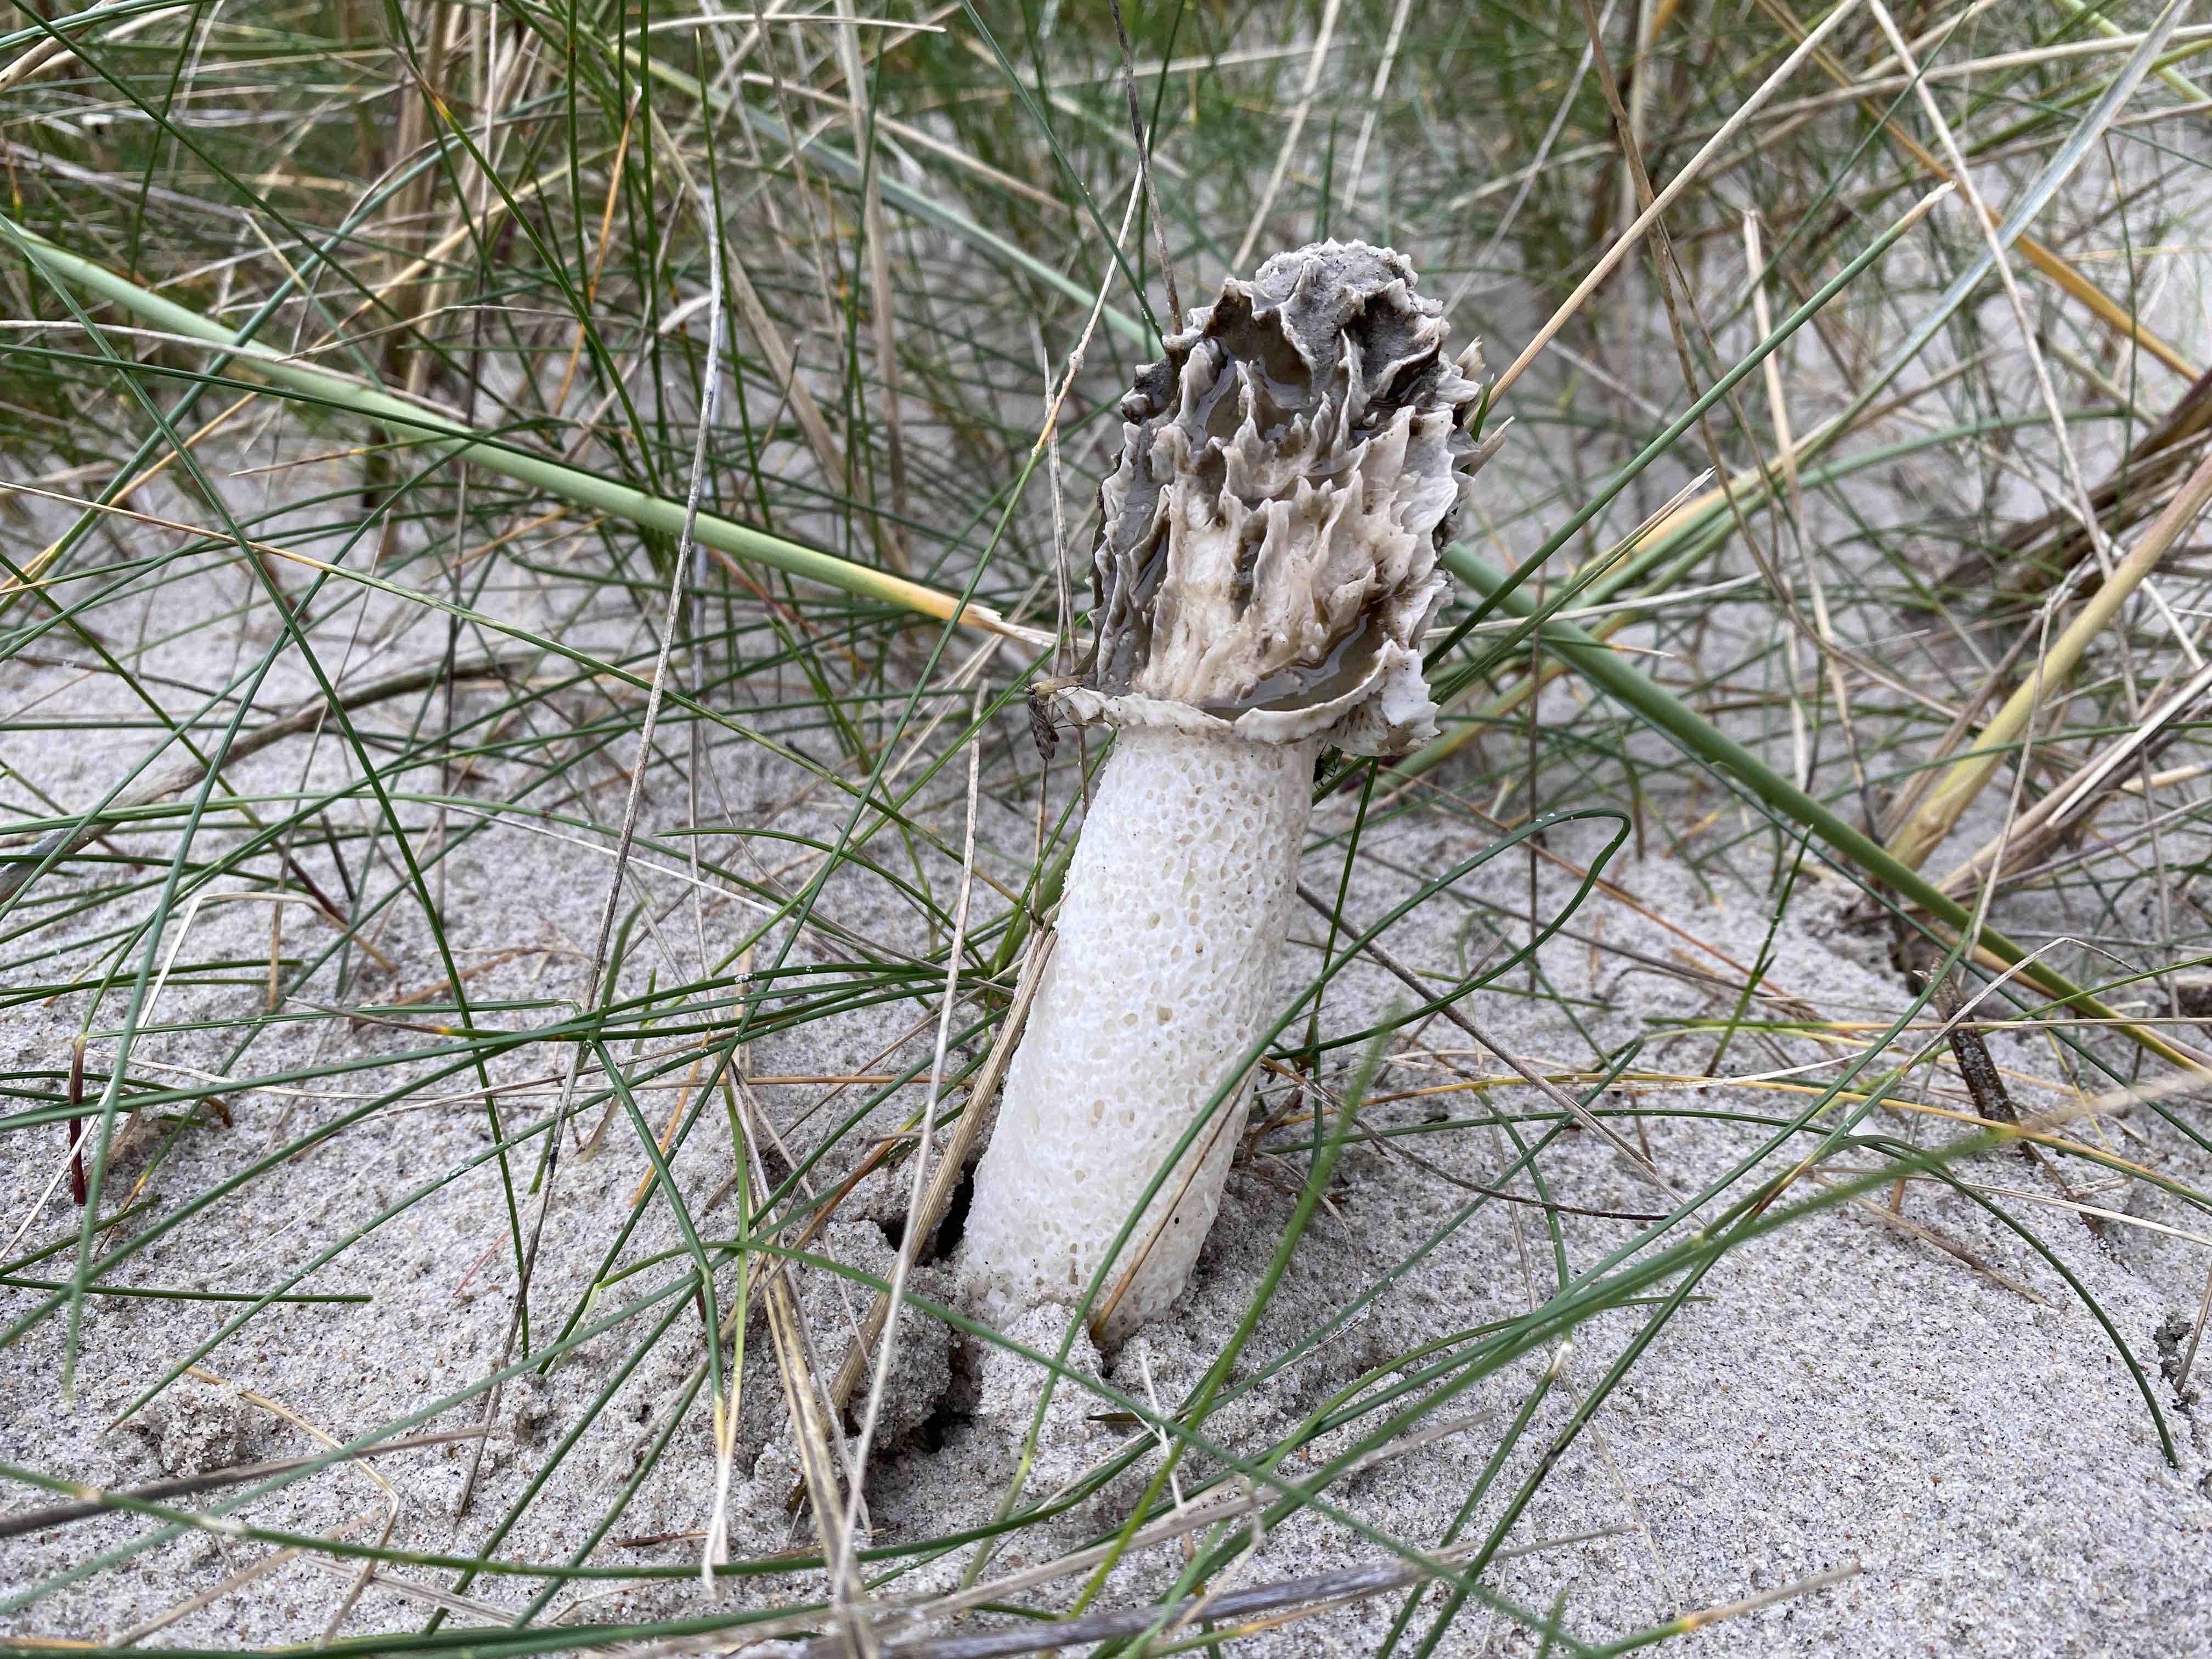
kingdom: Fungi
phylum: Basidiomycota
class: Agaricomycetes
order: Phallales
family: Phallaceae
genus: Phallus
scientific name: Phallus hadriani
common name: sand-stinksvamp
